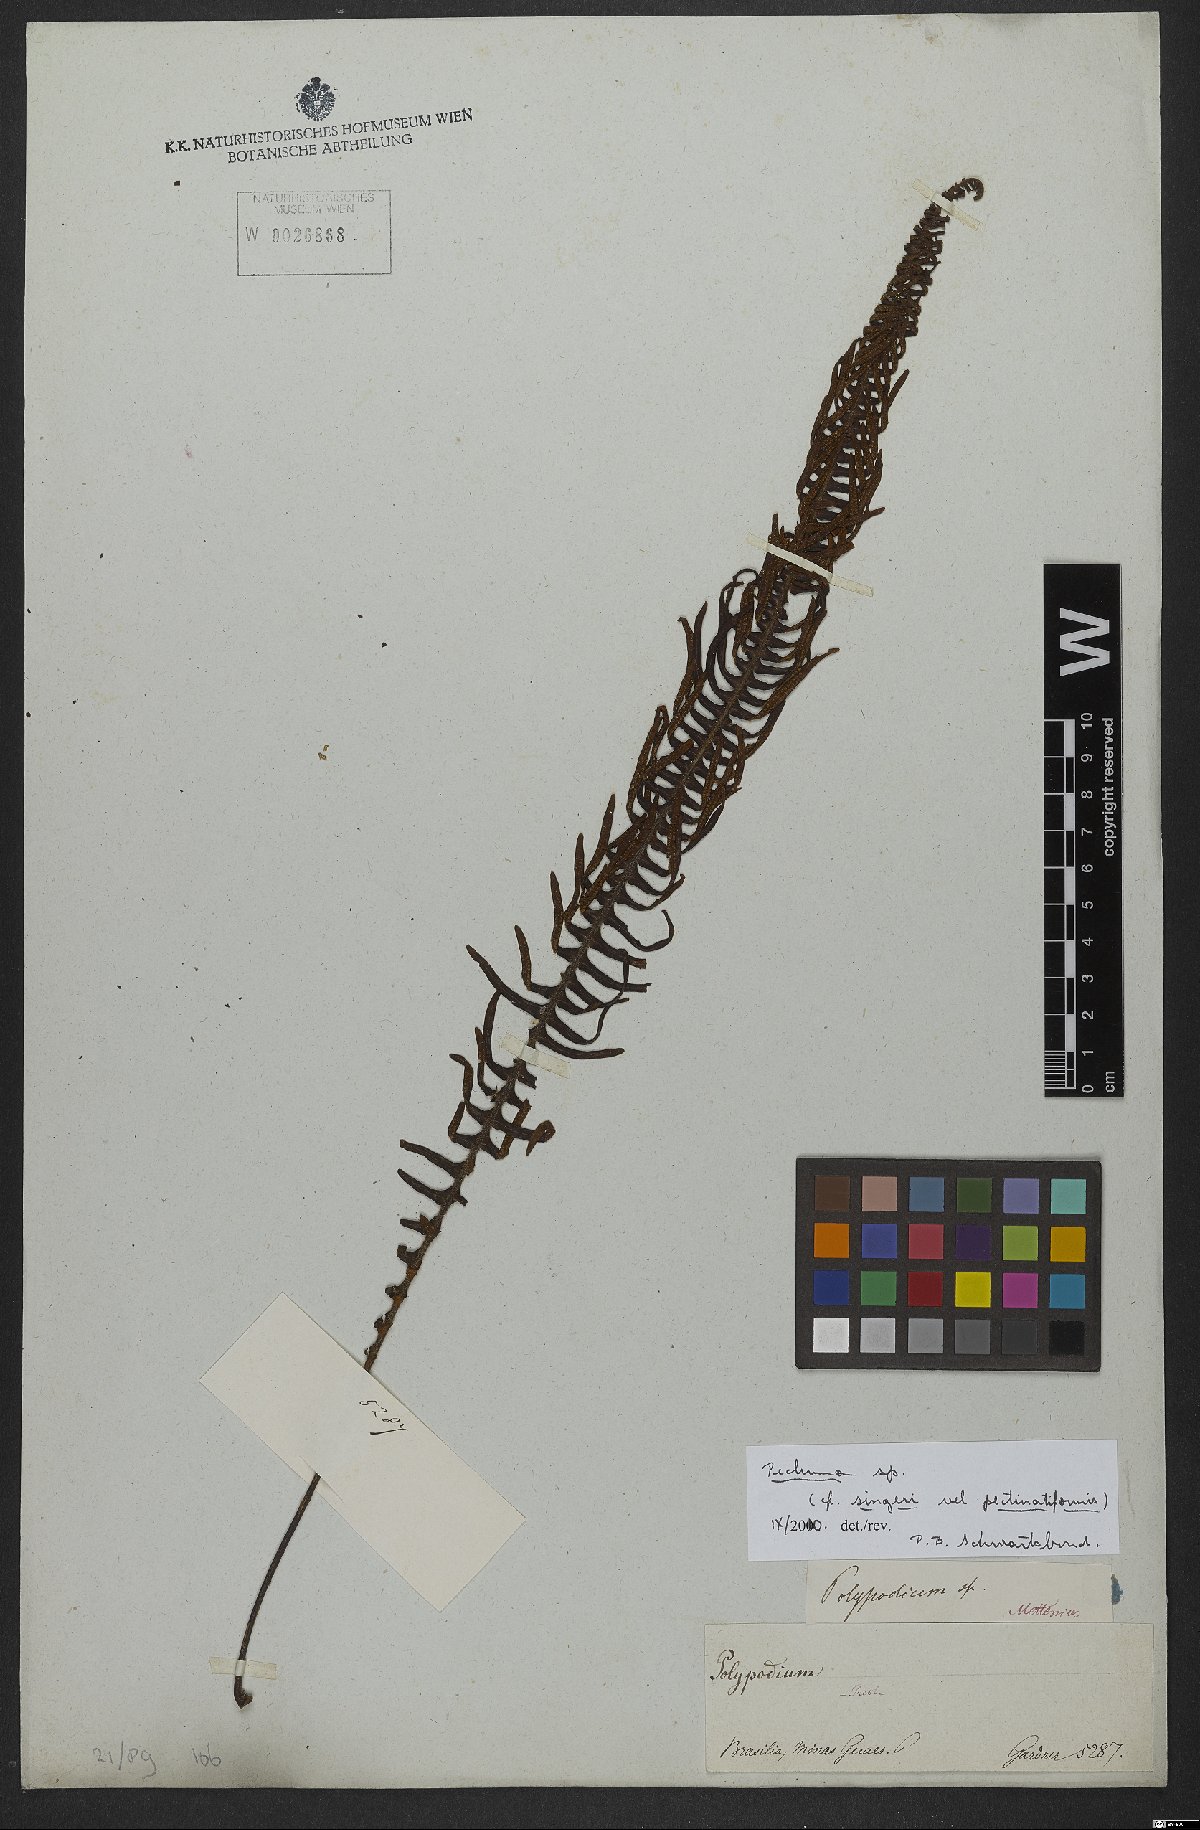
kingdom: Plantae
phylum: Tracheophyta
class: Polypodiopsida
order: Polypodiales
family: Polypodiaceae
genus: Pecluma
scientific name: Pecluma
